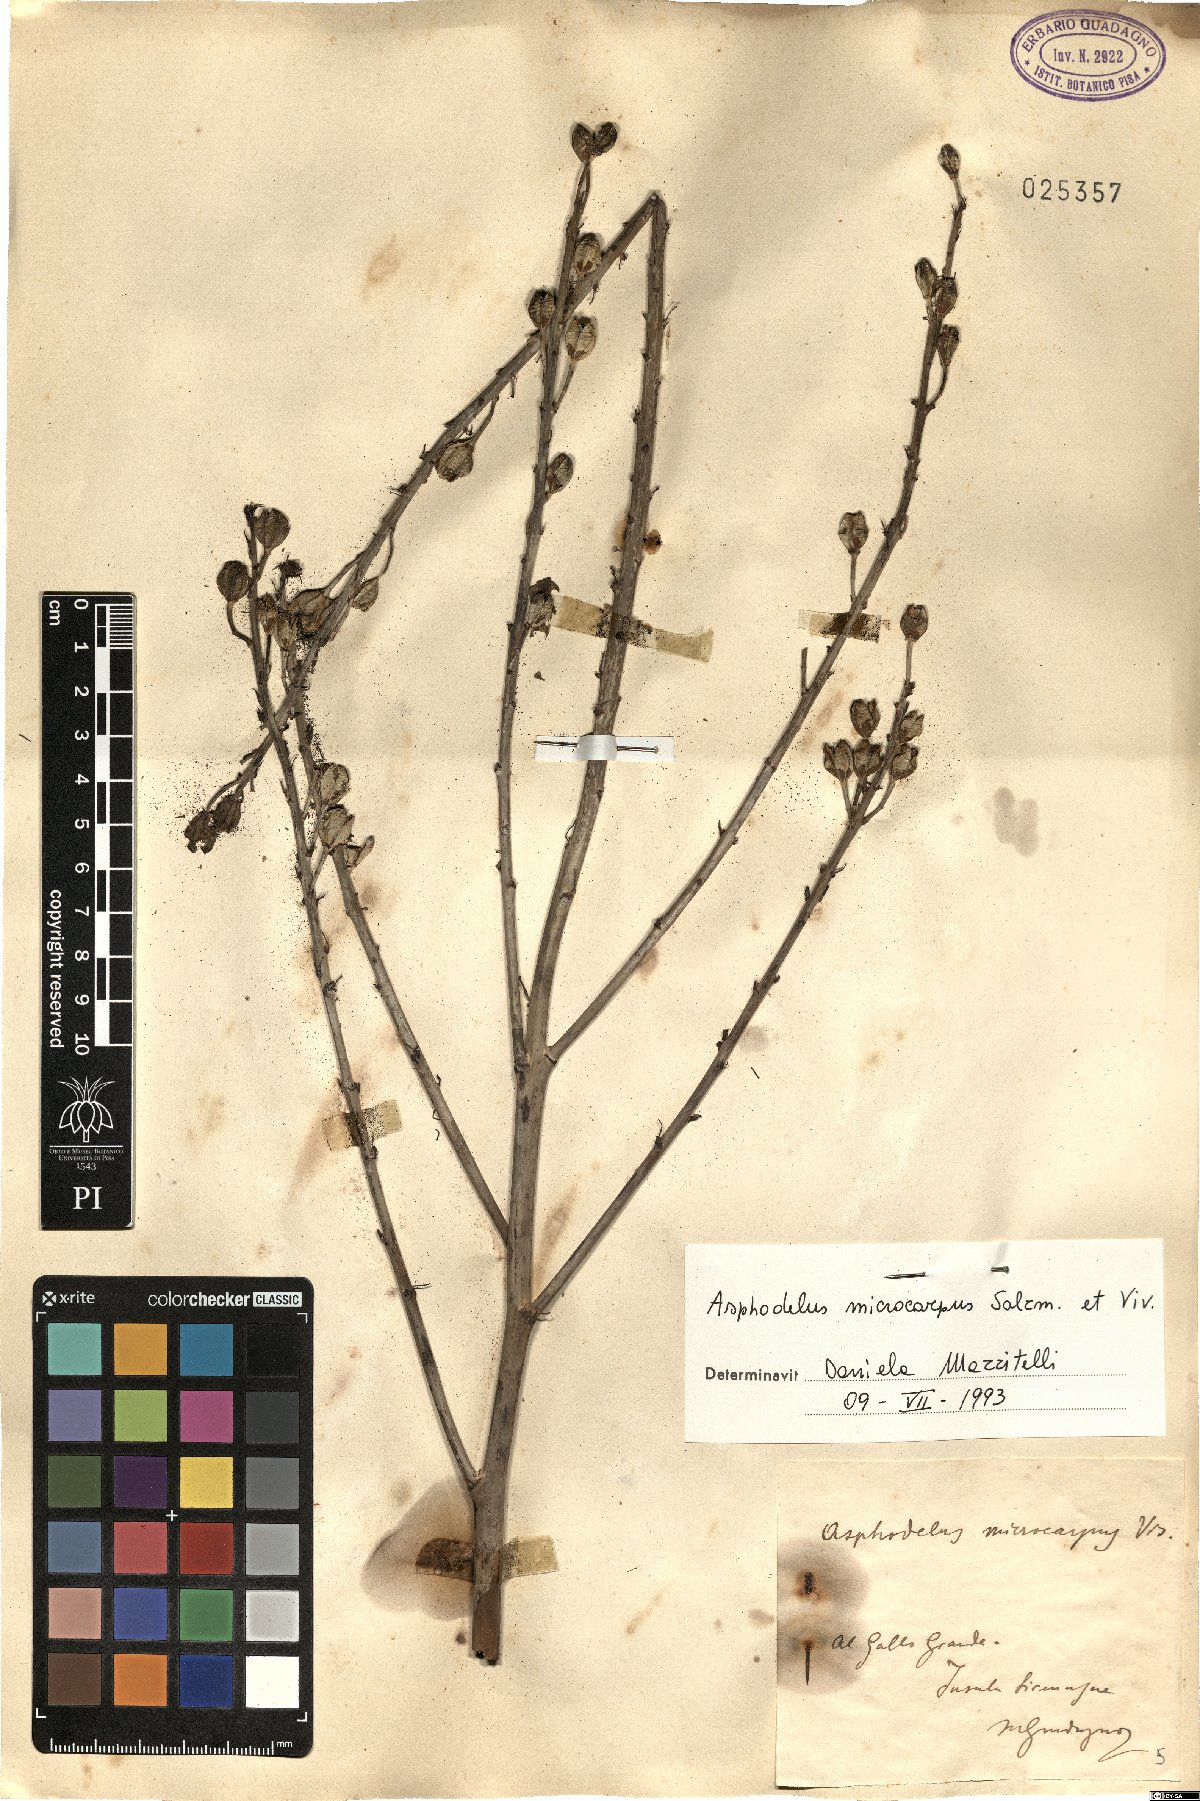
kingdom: Plantae
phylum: Tracheophyta
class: Liliopsida
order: Asparagales
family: Asphodelaceae
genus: Asphodelus
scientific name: Asphodelus ramosus
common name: Silverrod
